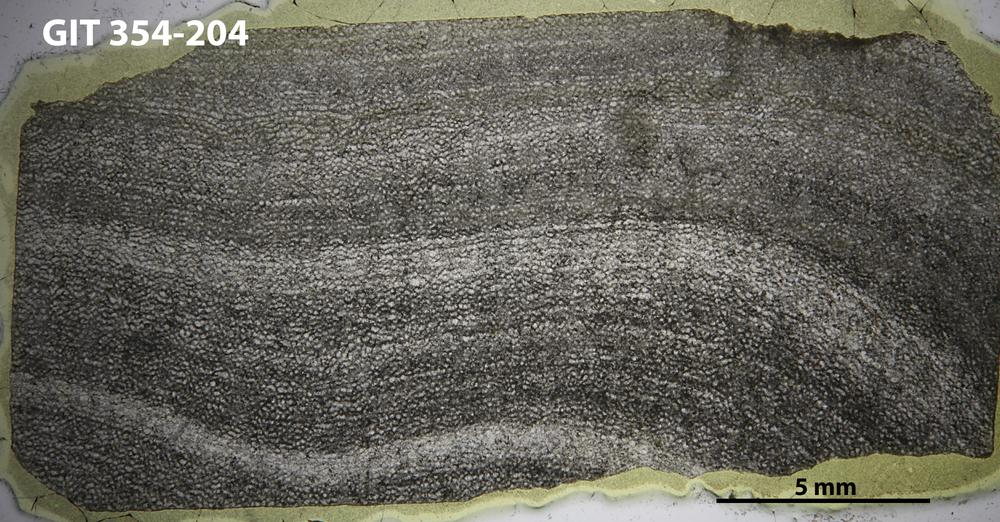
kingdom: Animalia
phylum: Porifera
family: Clathrodictyidae
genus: Clathrodictyon
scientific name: Clathrodictyon boreale
